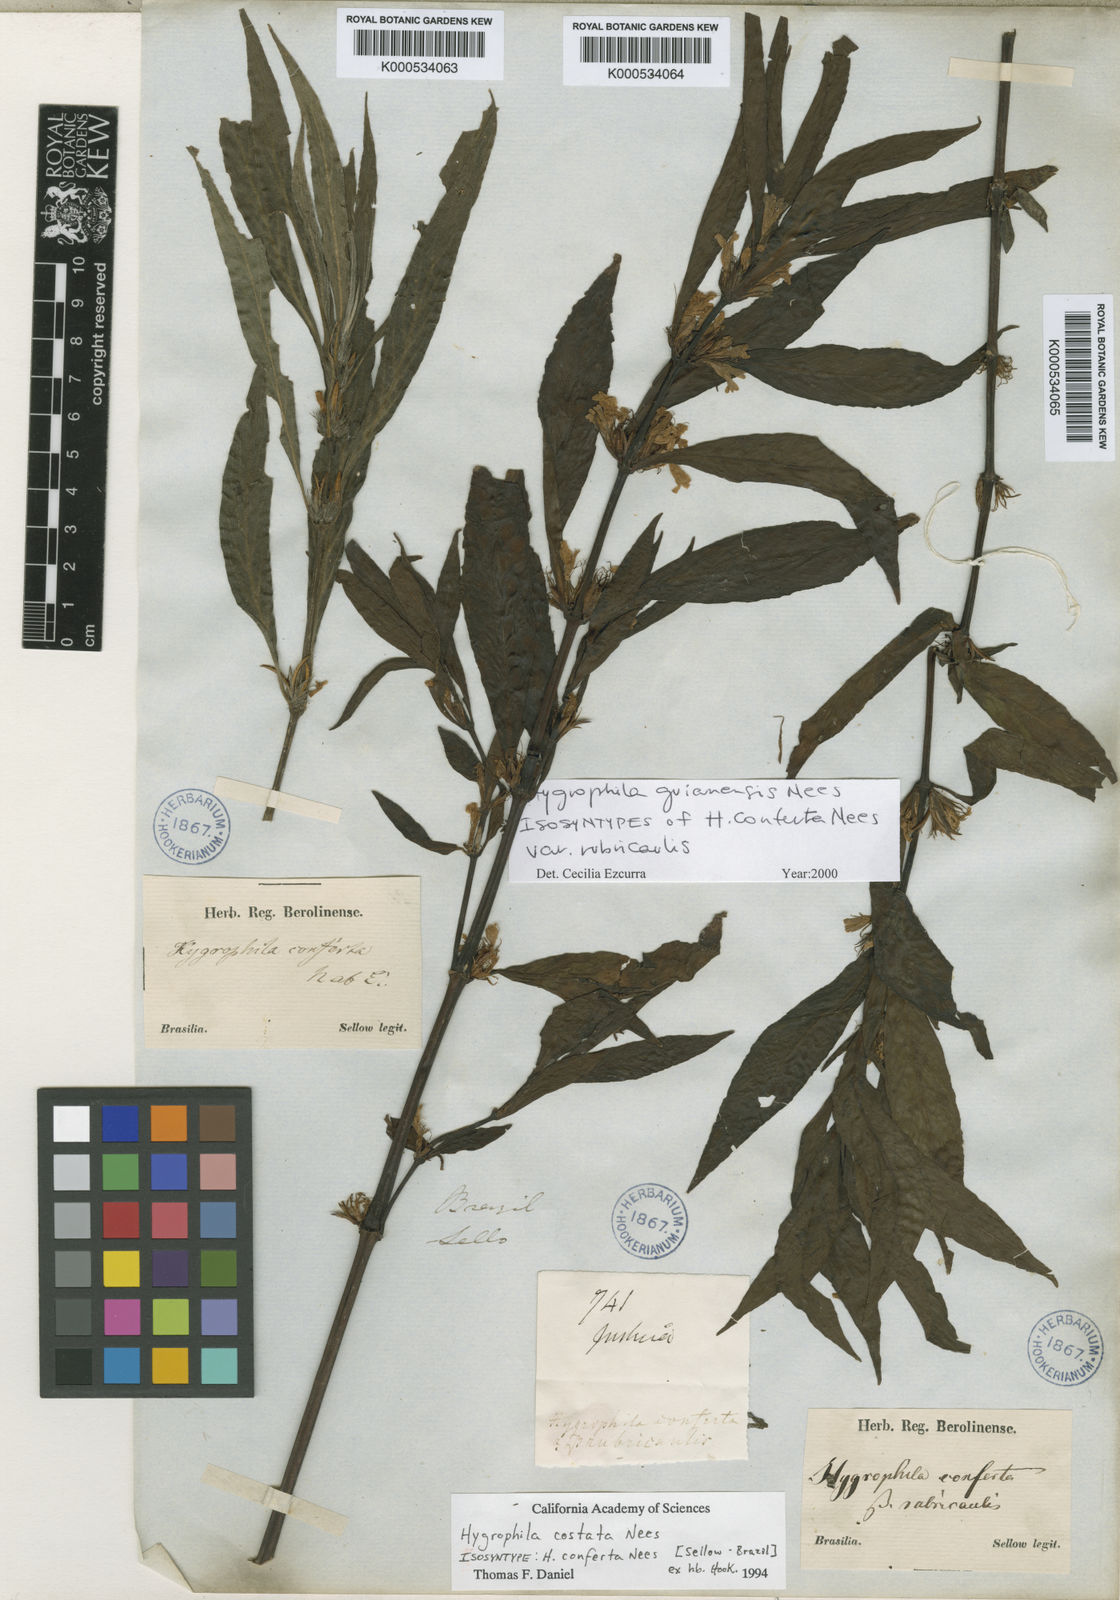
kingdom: Plantae
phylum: Tracheophyta
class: Magnoliopsida
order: Lamiales
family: Acanthaceae
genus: Hygrophila
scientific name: Hygrophila costata
